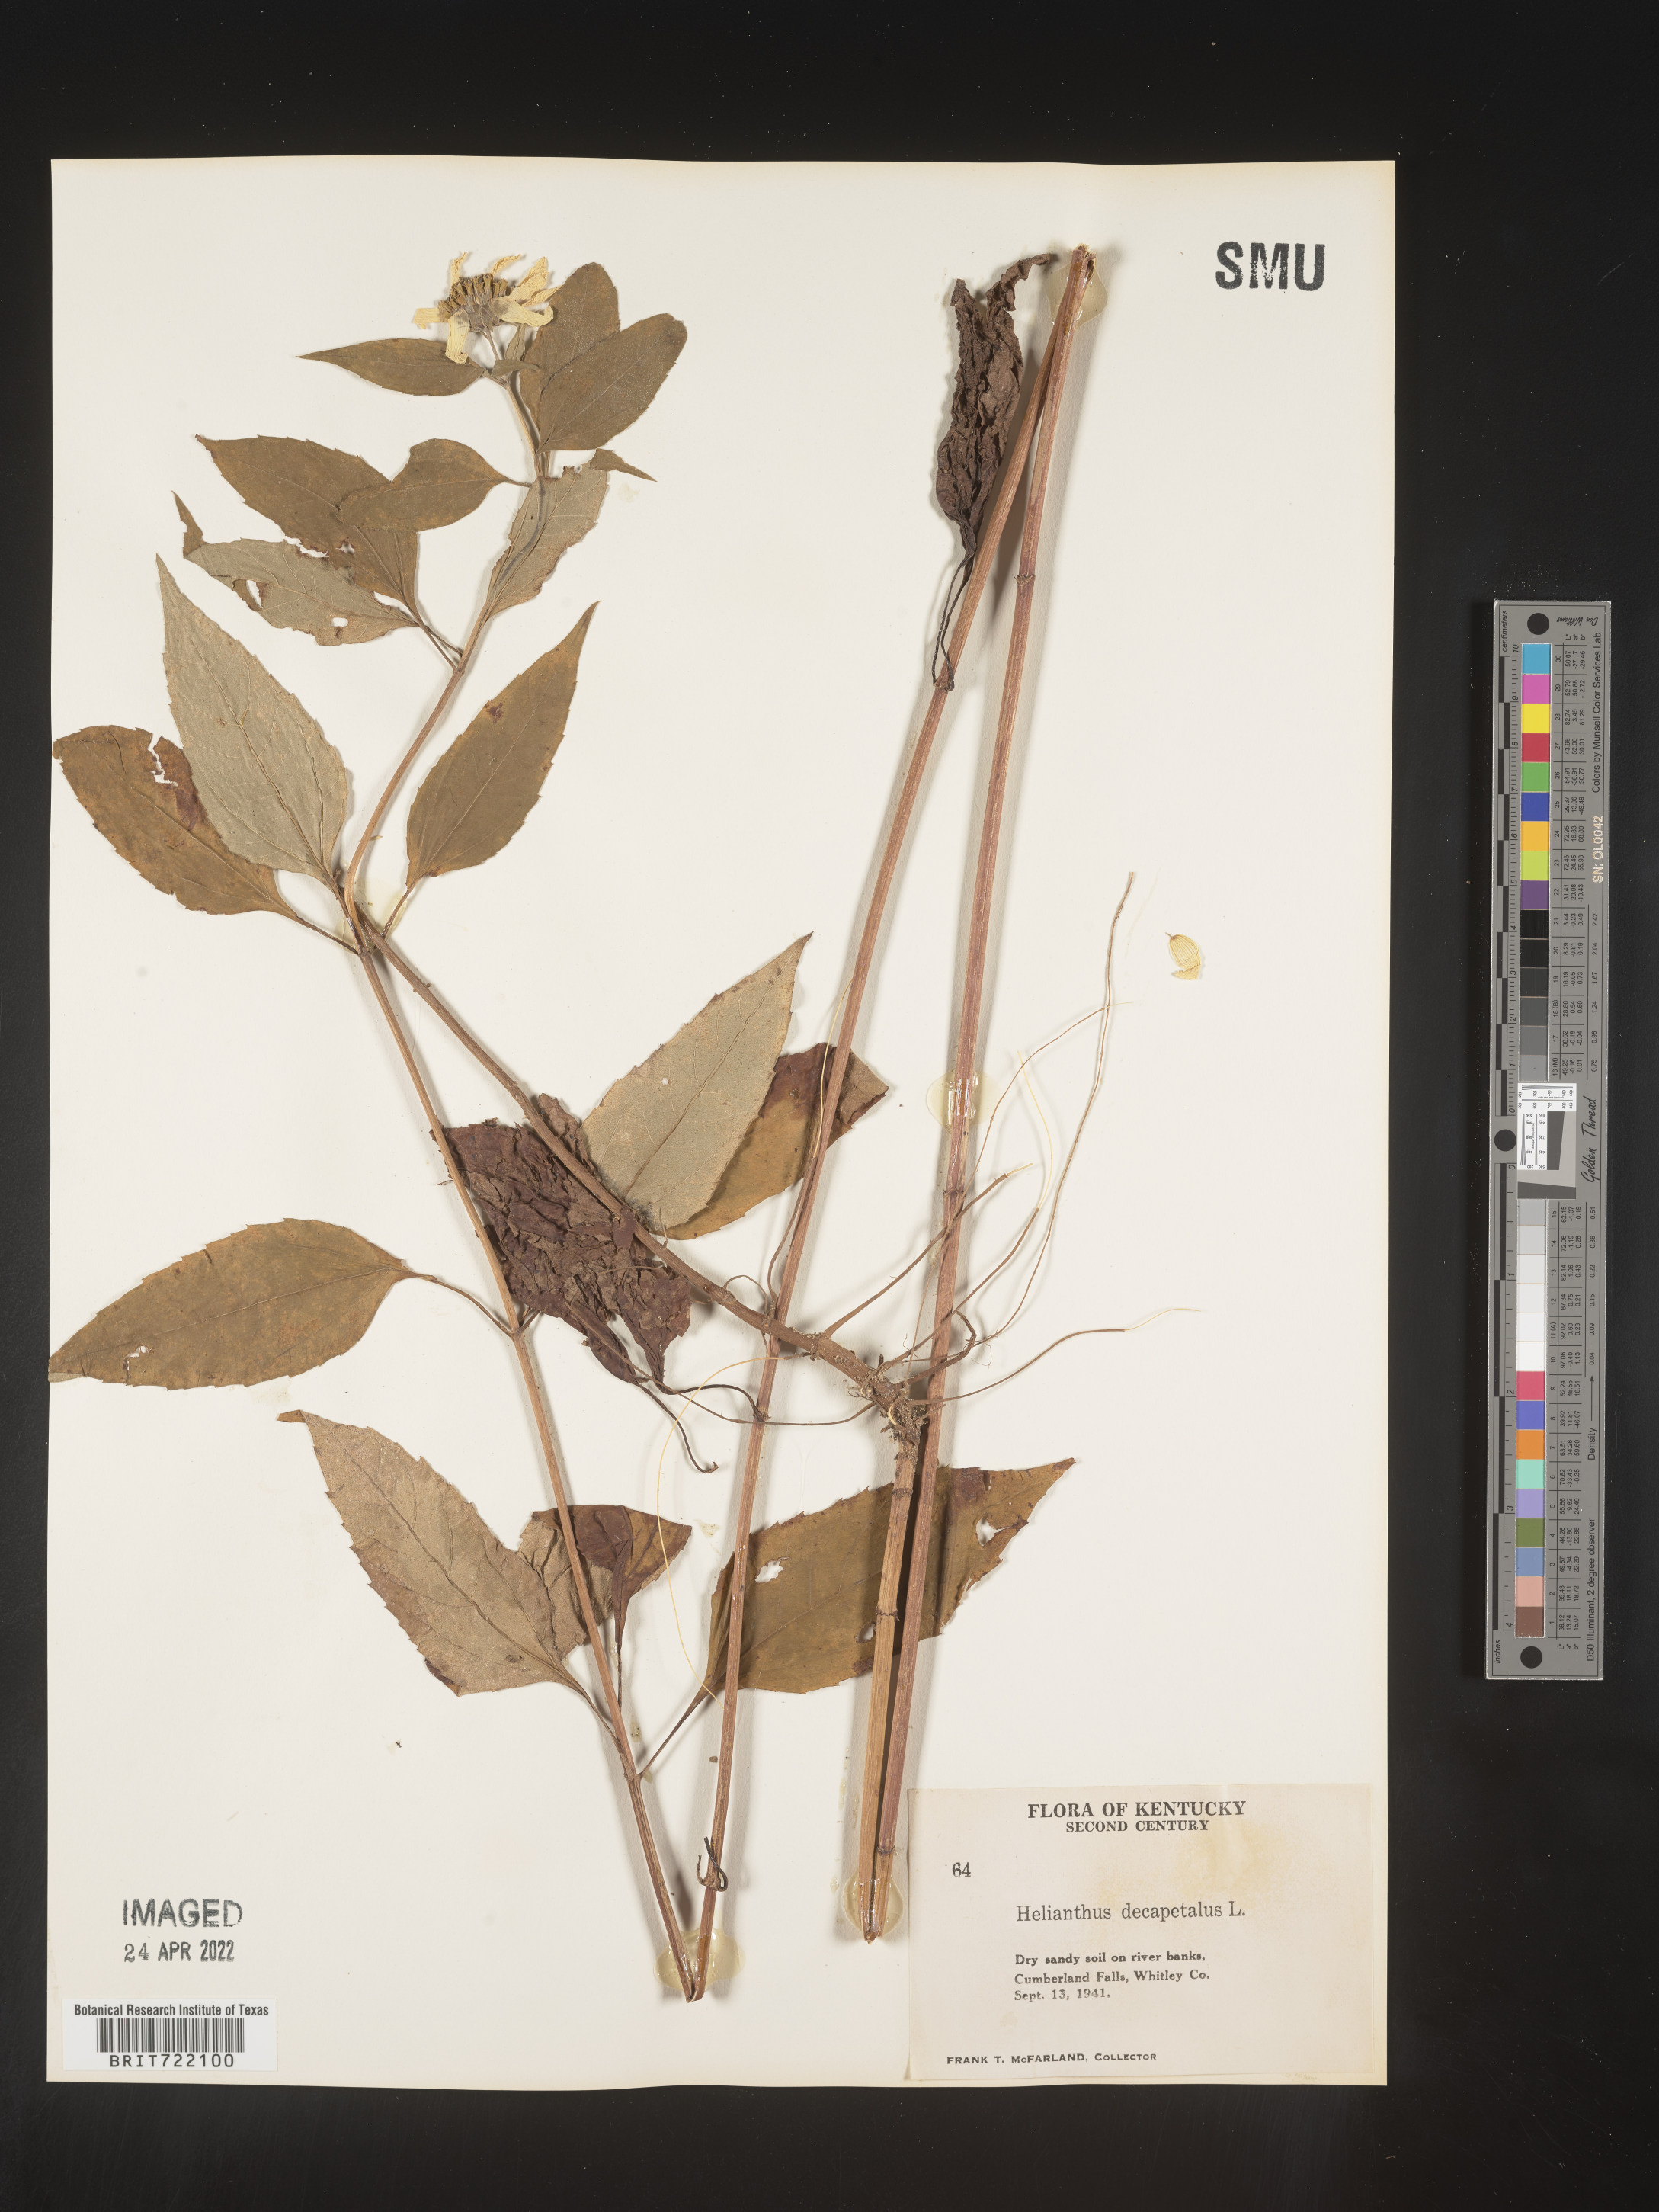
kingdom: Plantae
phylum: Tracheophyta
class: Magnoliopsida
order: Asterales
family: Asteraceae
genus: Helianthus
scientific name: Helianthus decapetalus
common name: Thin-leaved sunflower
